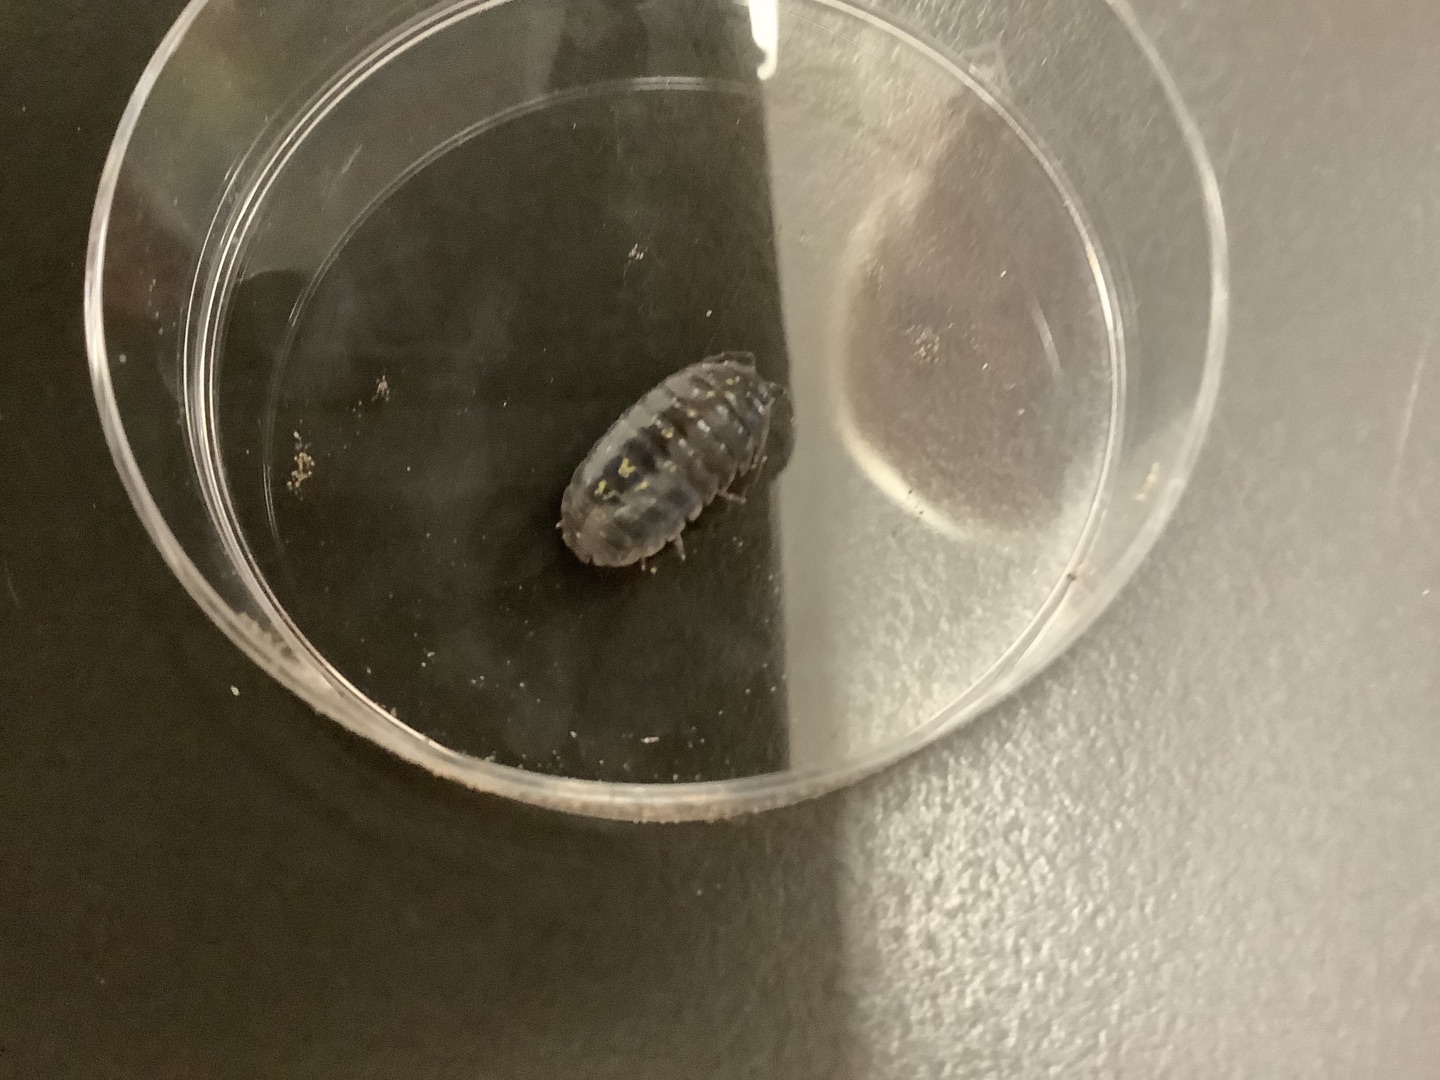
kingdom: Animalia
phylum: Arthropoda
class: Malacostraca
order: Isopoda
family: Armadillidiidae
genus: Armadillidium
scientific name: Armadillidium vulgare
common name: Almindelig kuglebænkebider
